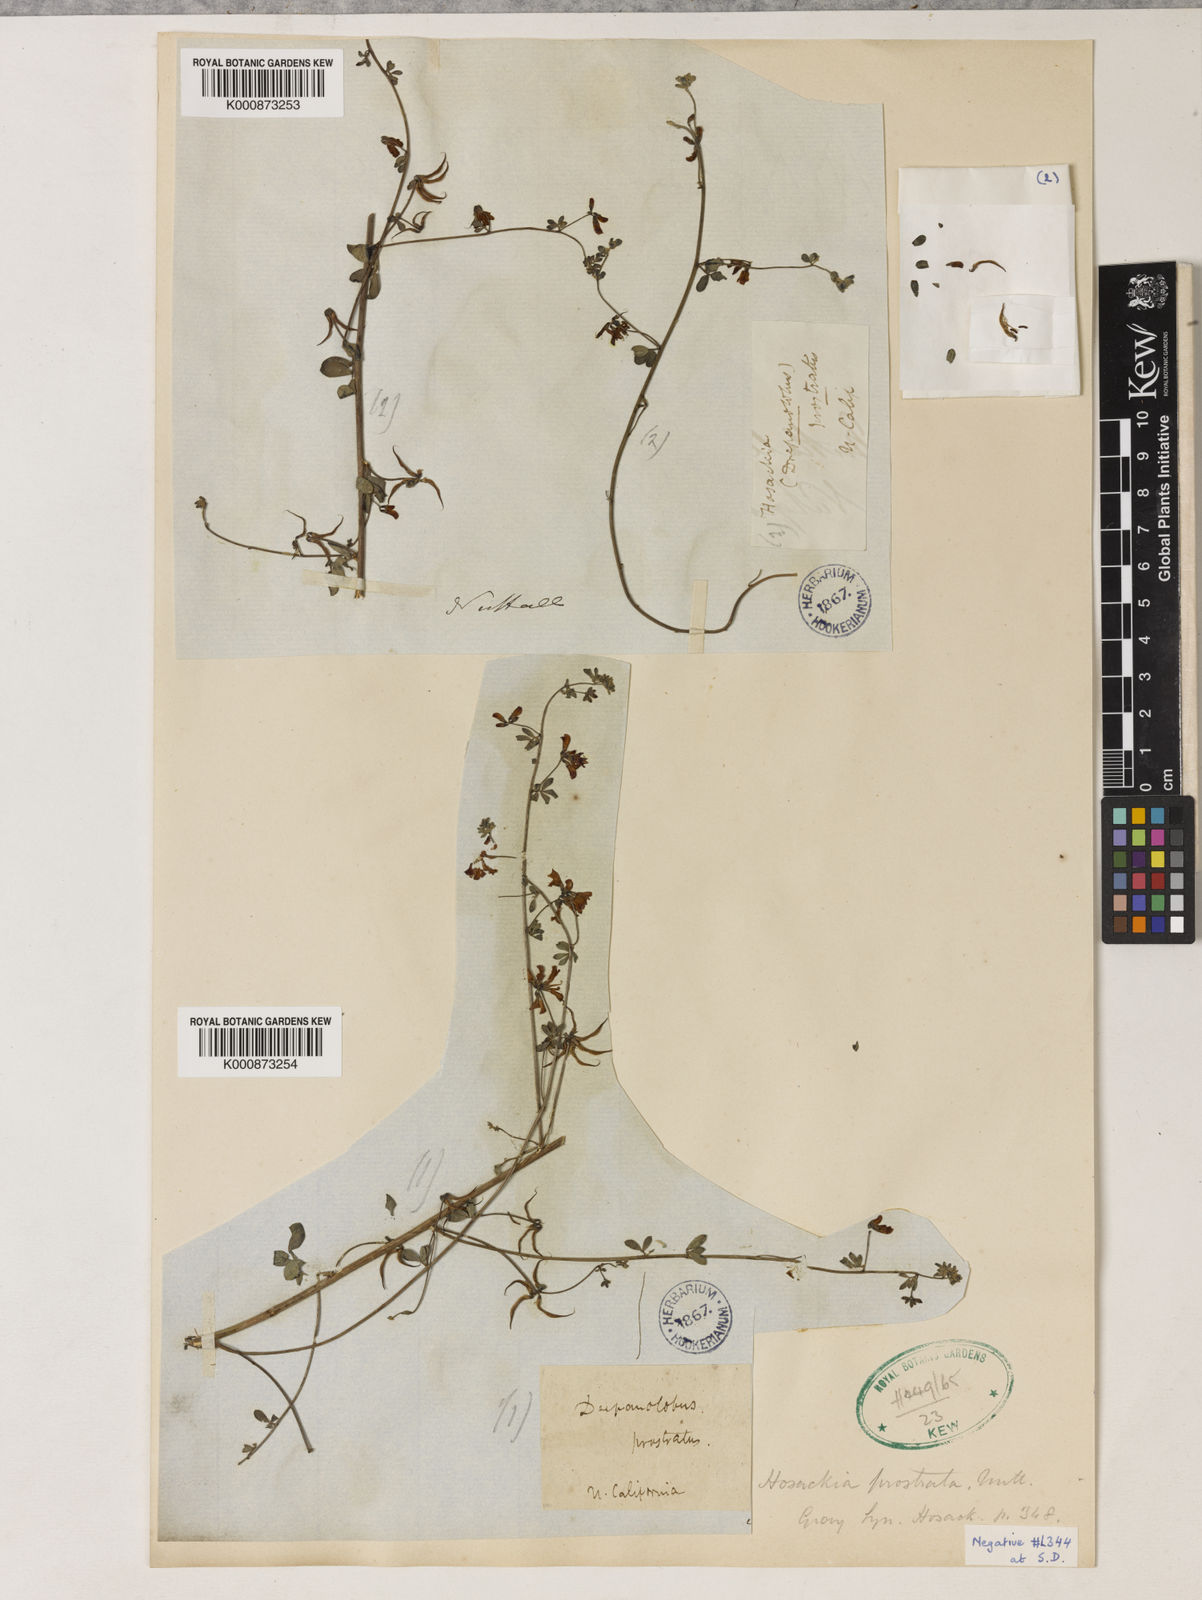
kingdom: Plantae
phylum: Tracheophyta
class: Magnoliopsida
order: Fabales
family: Fabaceae
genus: Acmispon
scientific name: Acmispon prostratus
